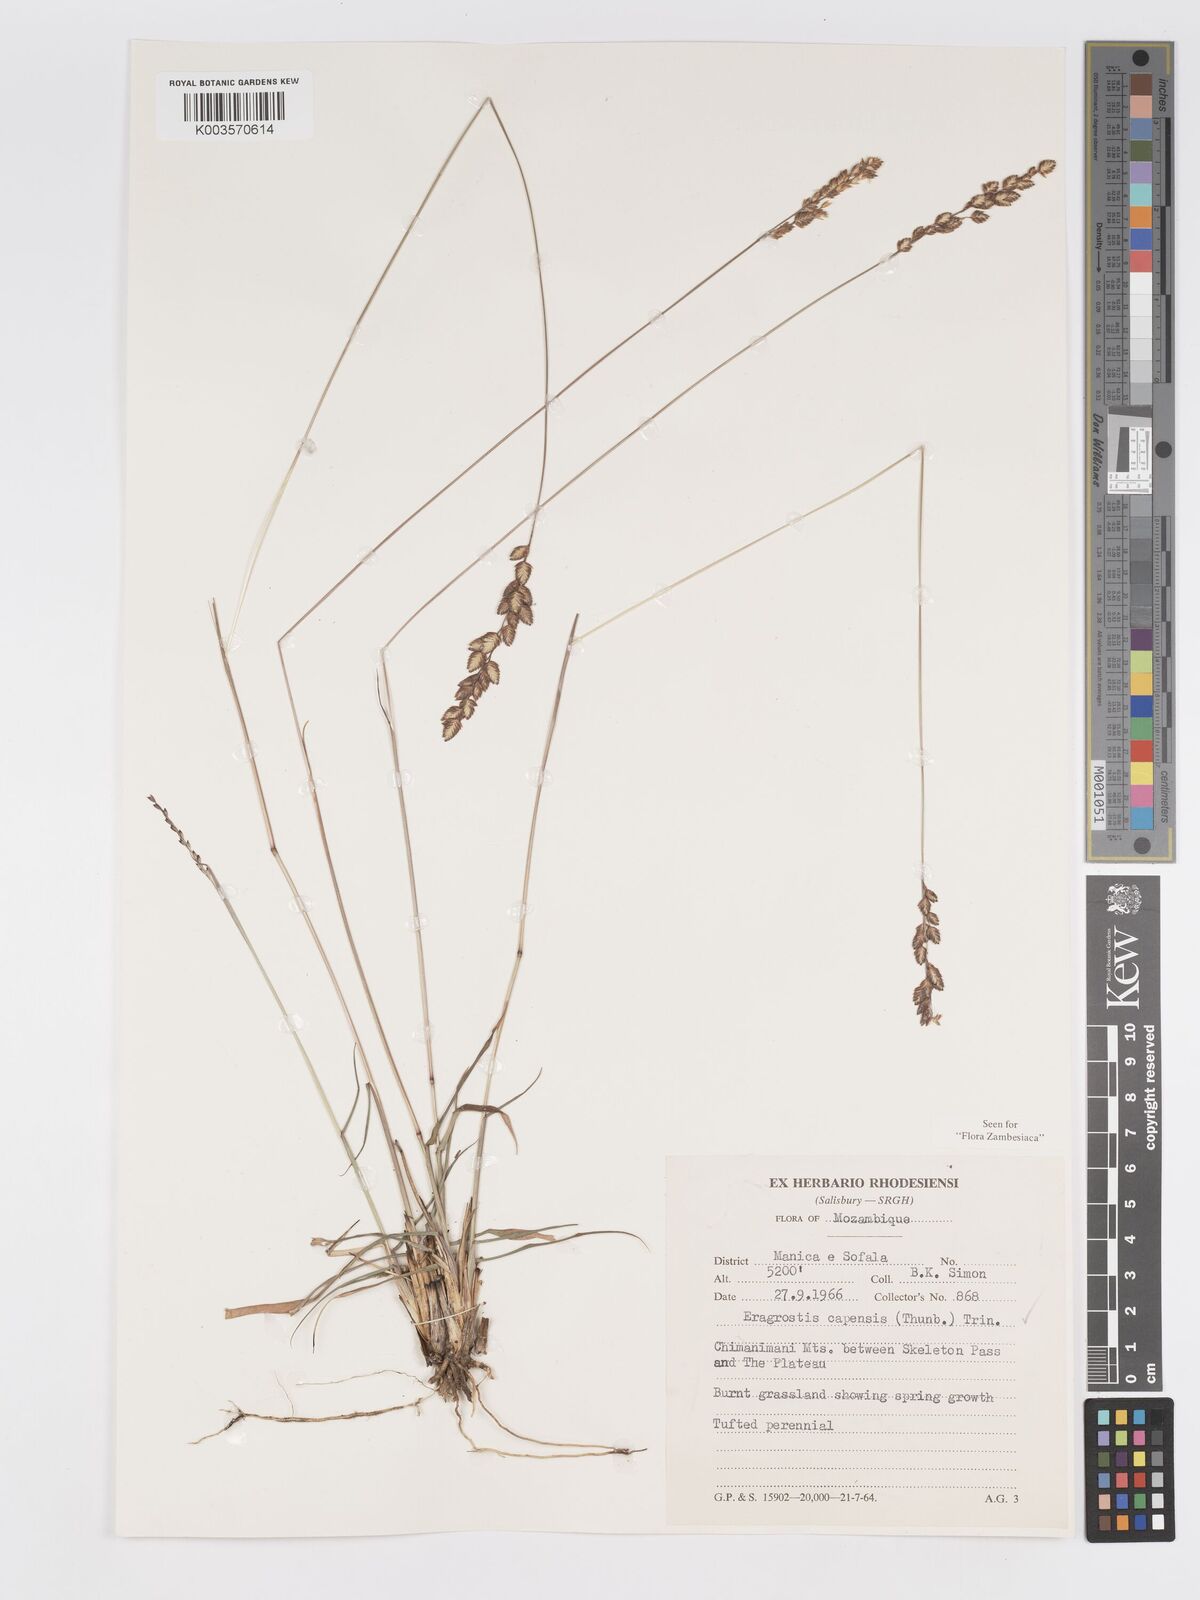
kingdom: Plantae
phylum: Tracheophyta
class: Liliopsida
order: Poales
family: Poaceae
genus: Eragrostis
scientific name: Eragrostis capensis
